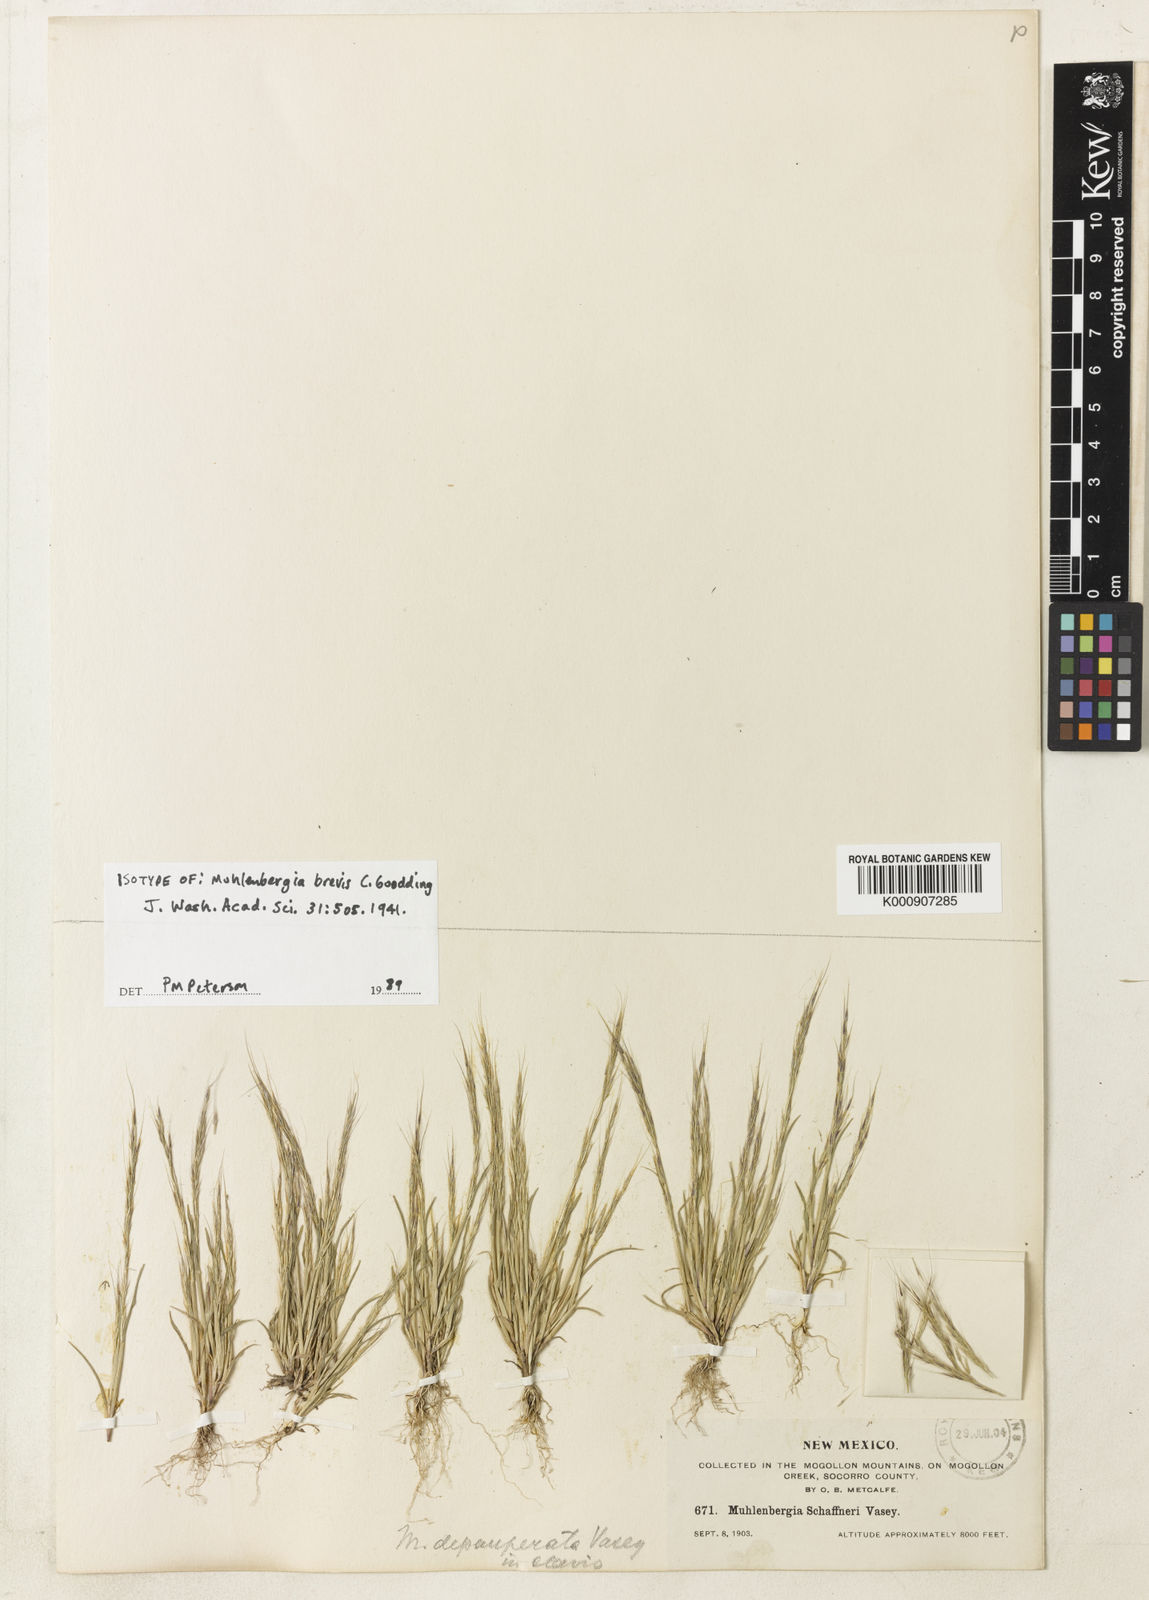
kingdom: Plantae
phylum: Tracheophyta
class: Liliopsida
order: Poales
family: Poaceae
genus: Muhlenbergia
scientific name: Muhlenbergia brevis
